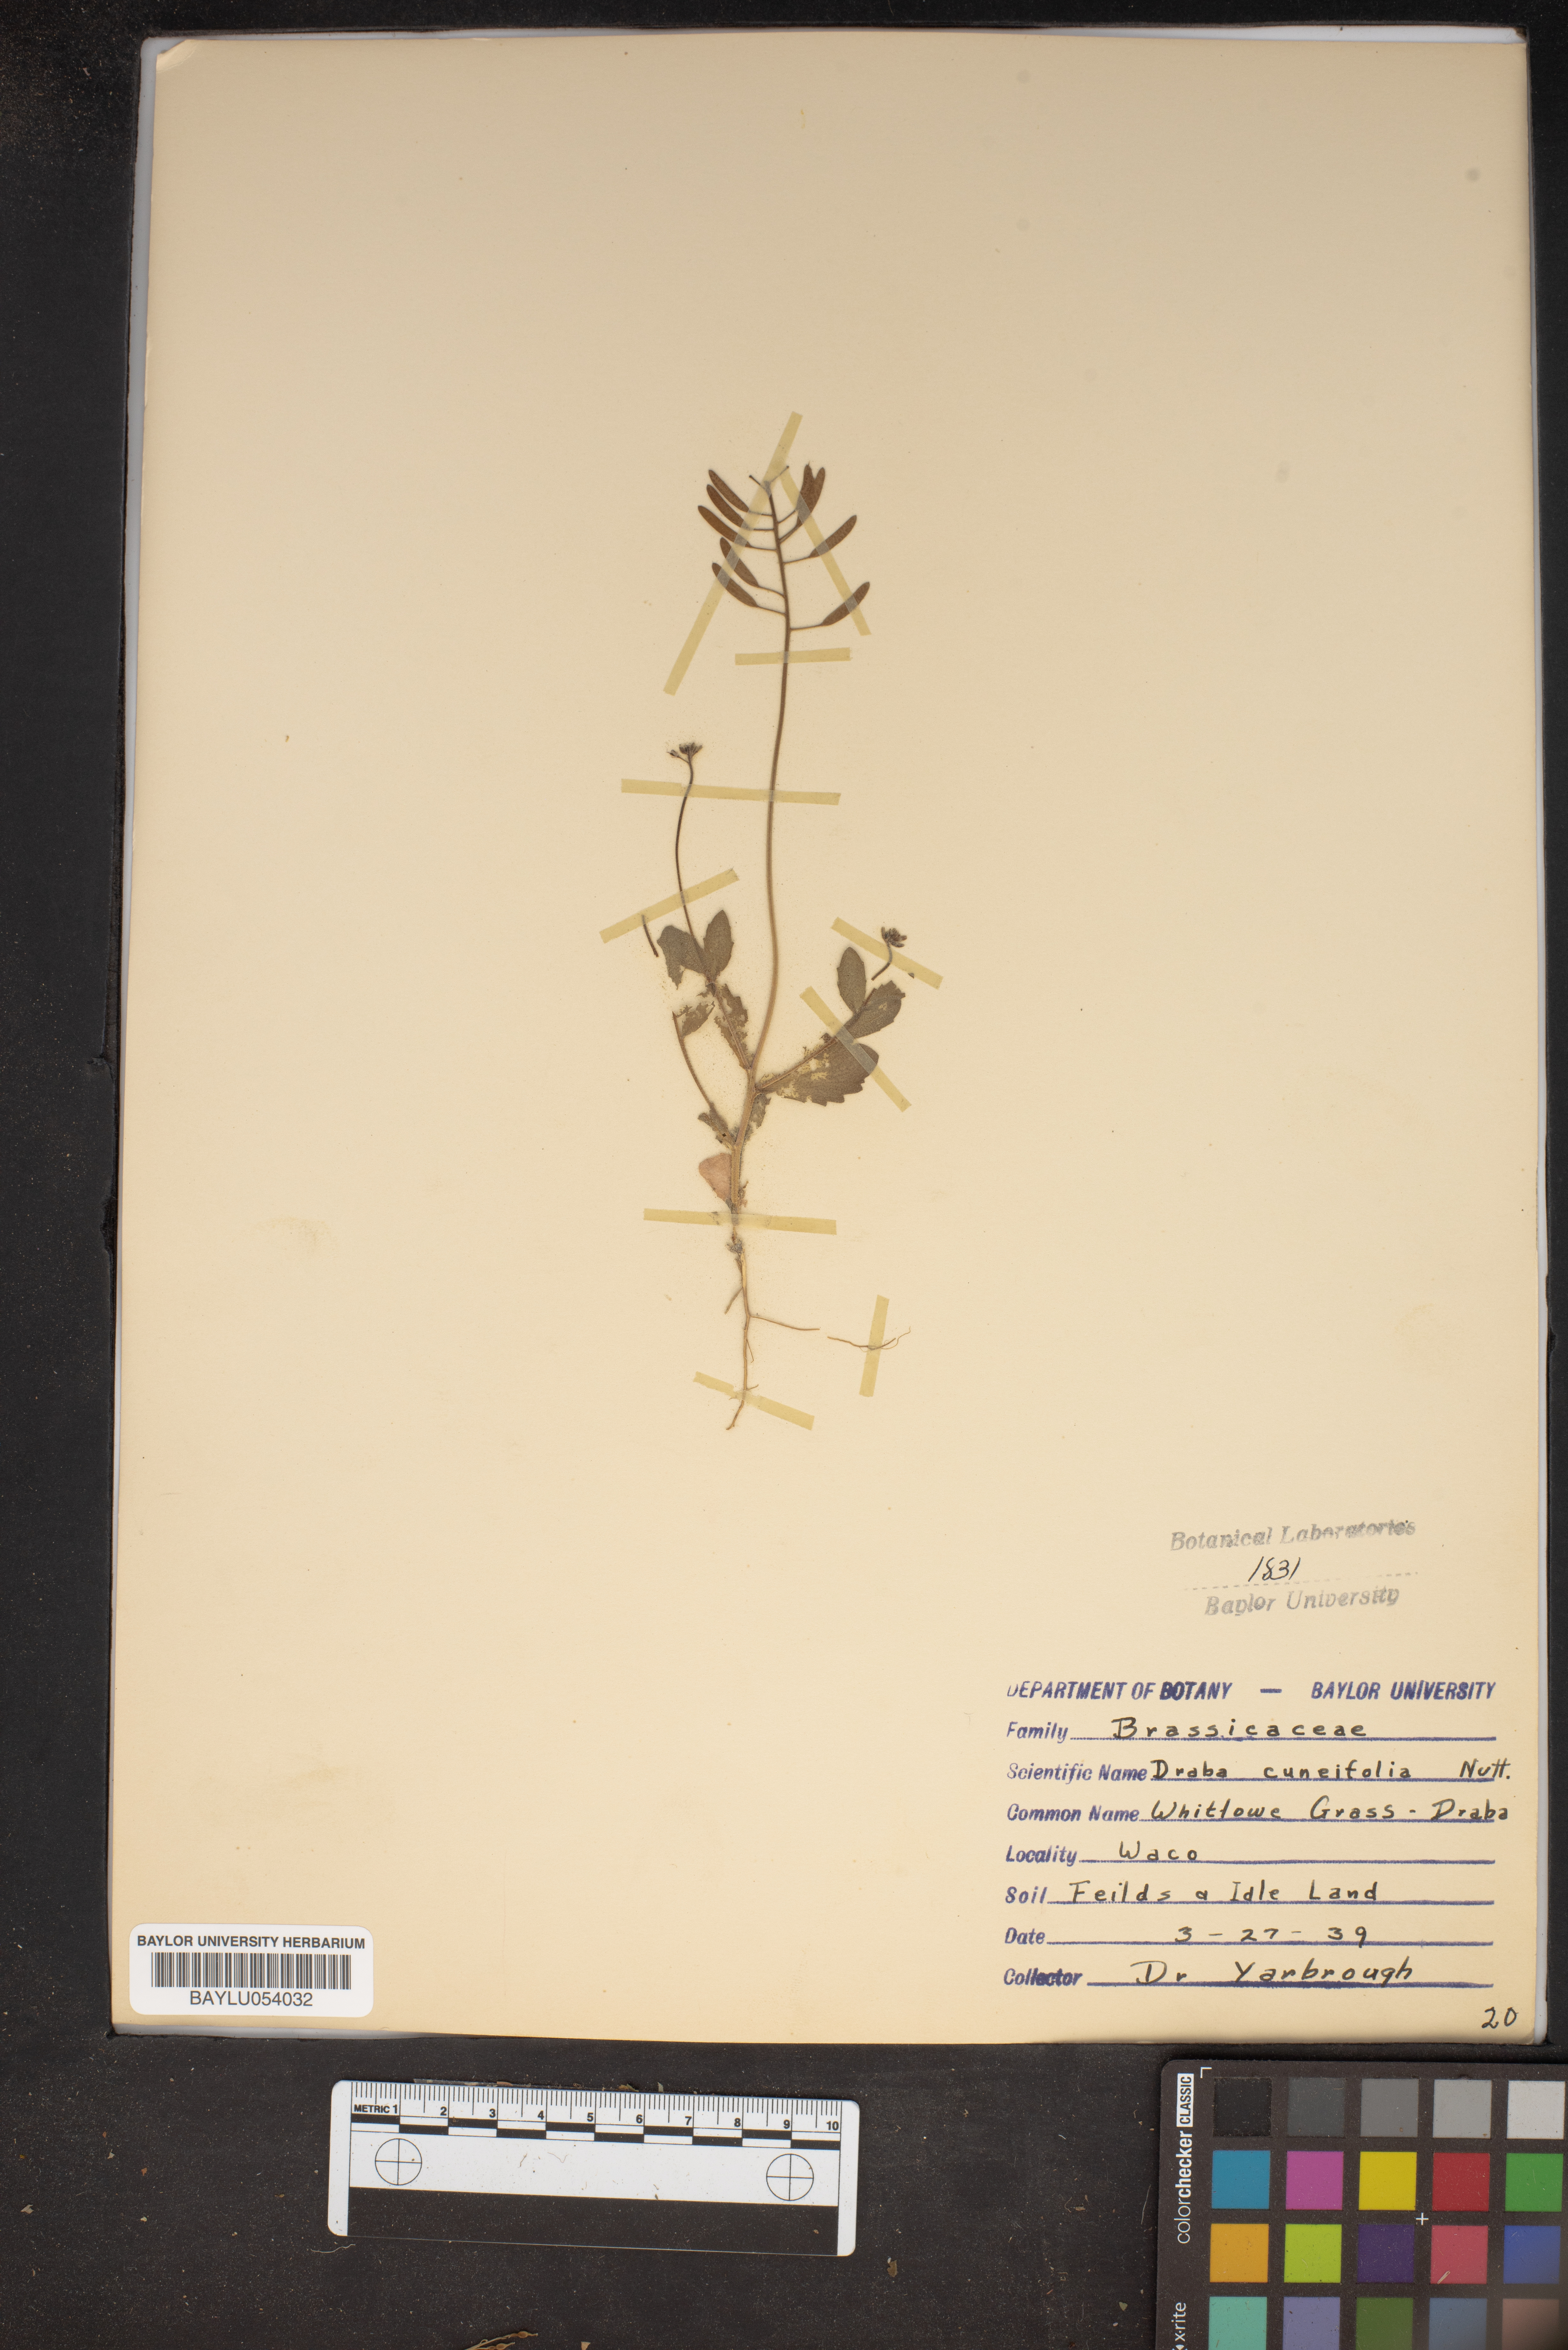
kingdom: Plantae
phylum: Tracheophyta
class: Magnoliopsida
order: Brassicales
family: Brassicaceae
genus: Tomostima
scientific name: Tomostima cuneifolia
